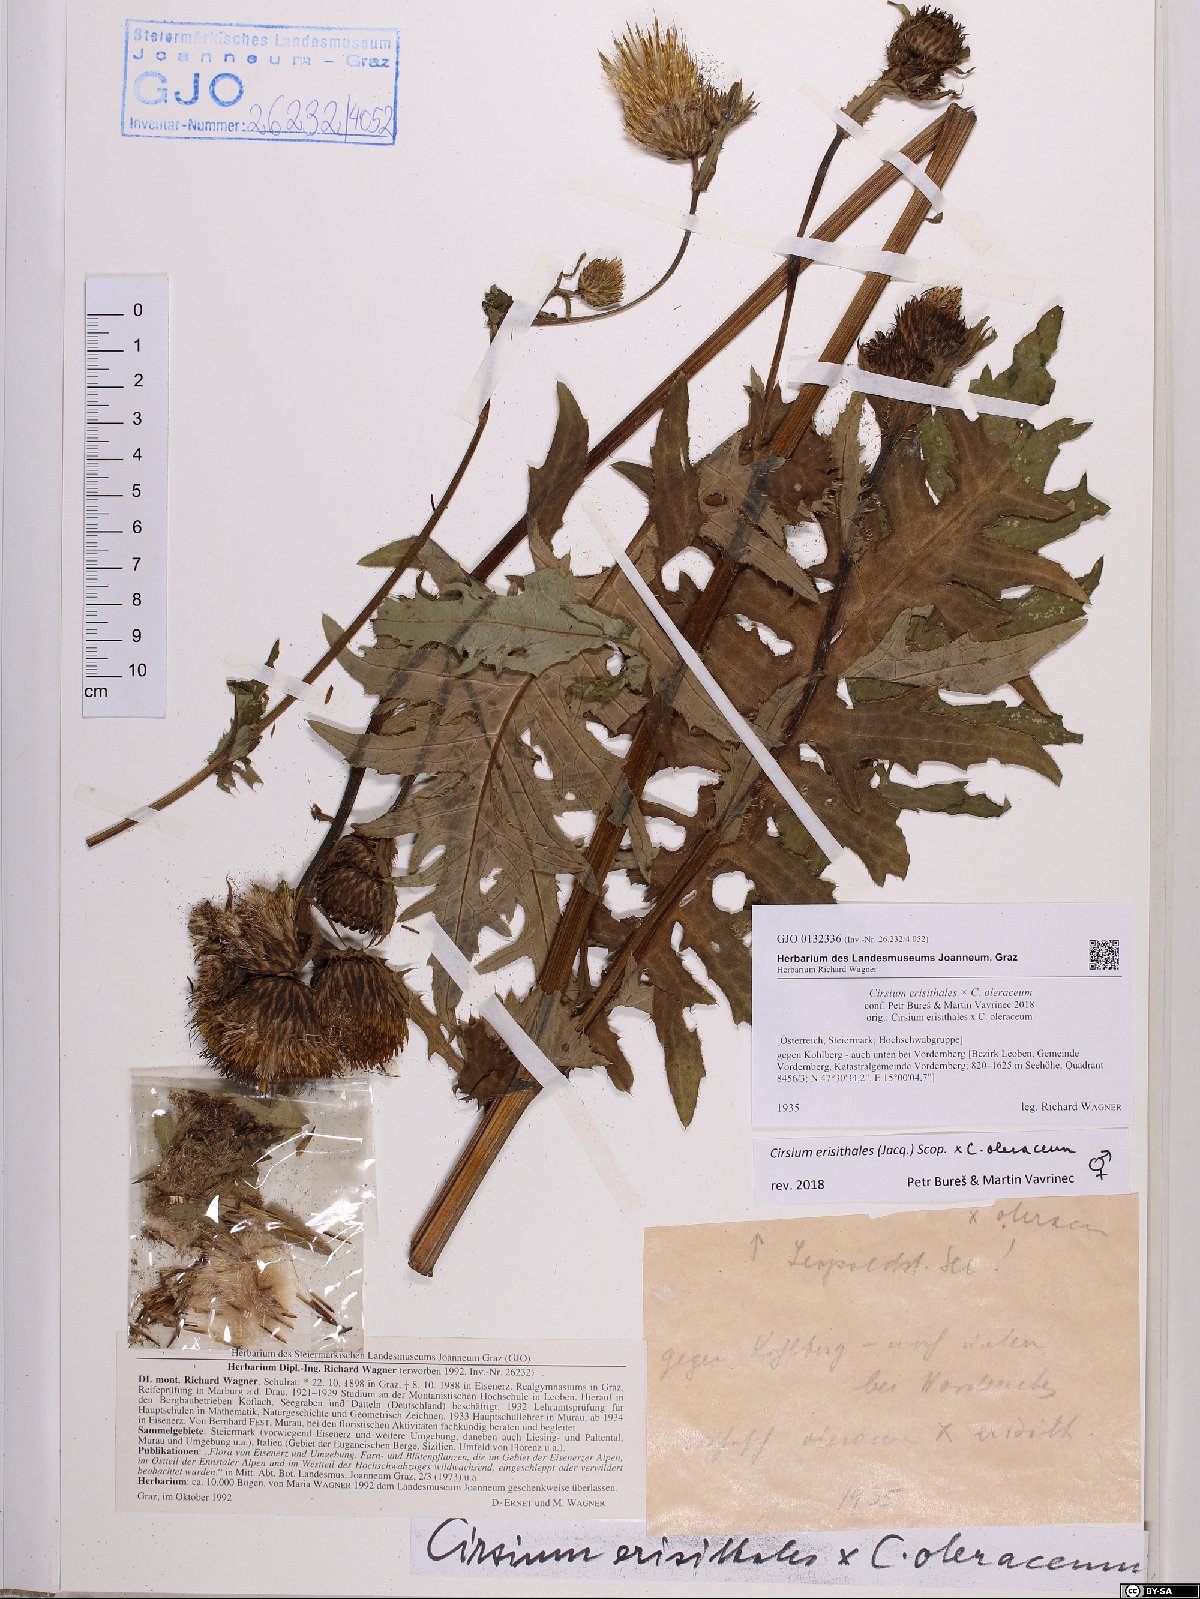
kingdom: Plantae
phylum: Tracheophyta
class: Magnoliopsida
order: Asterales
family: Asteraceae
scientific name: Asteraceae
